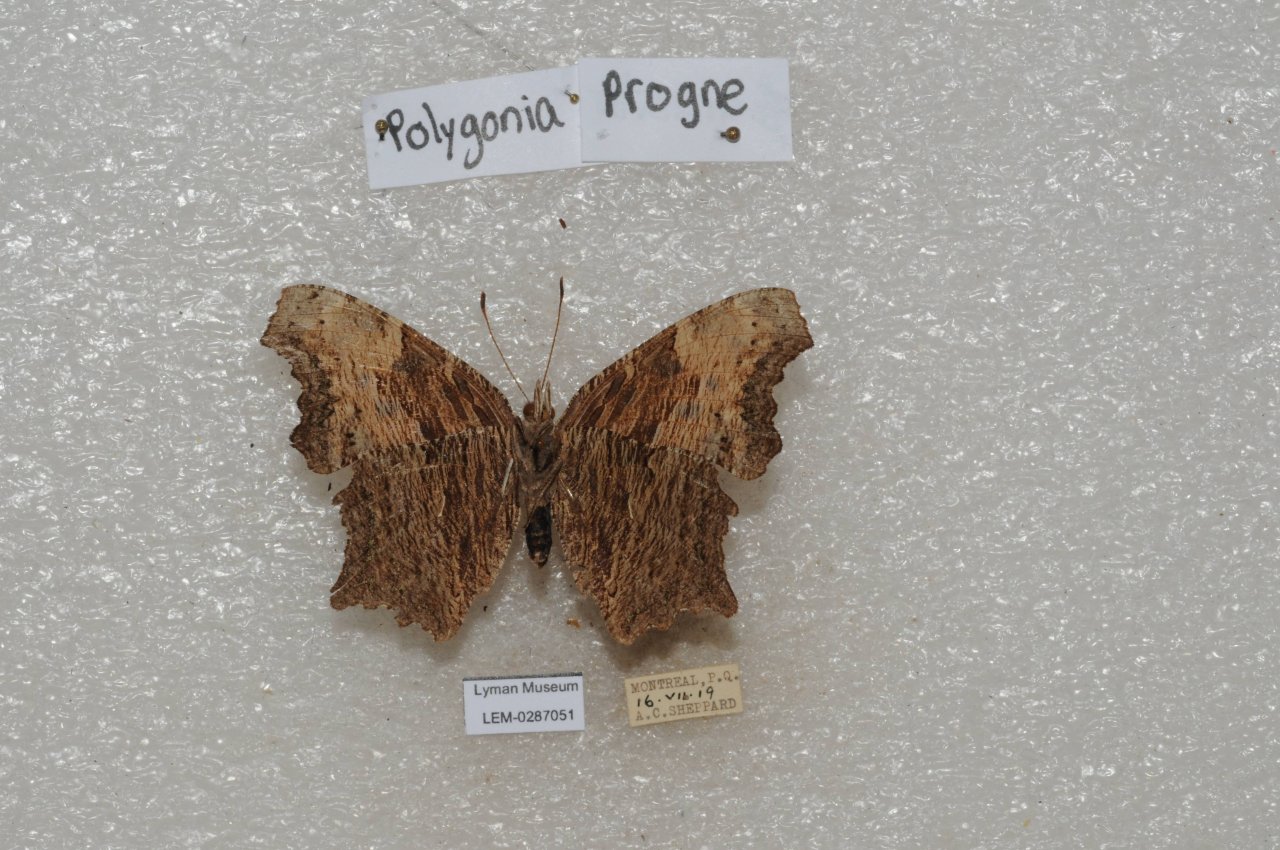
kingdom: Animalia
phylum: Arthropoda
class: Insecta
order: Lepidoptera
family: Nymphalidae
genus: Polygonia
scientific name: Polygonia progne
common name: Gray Comma
